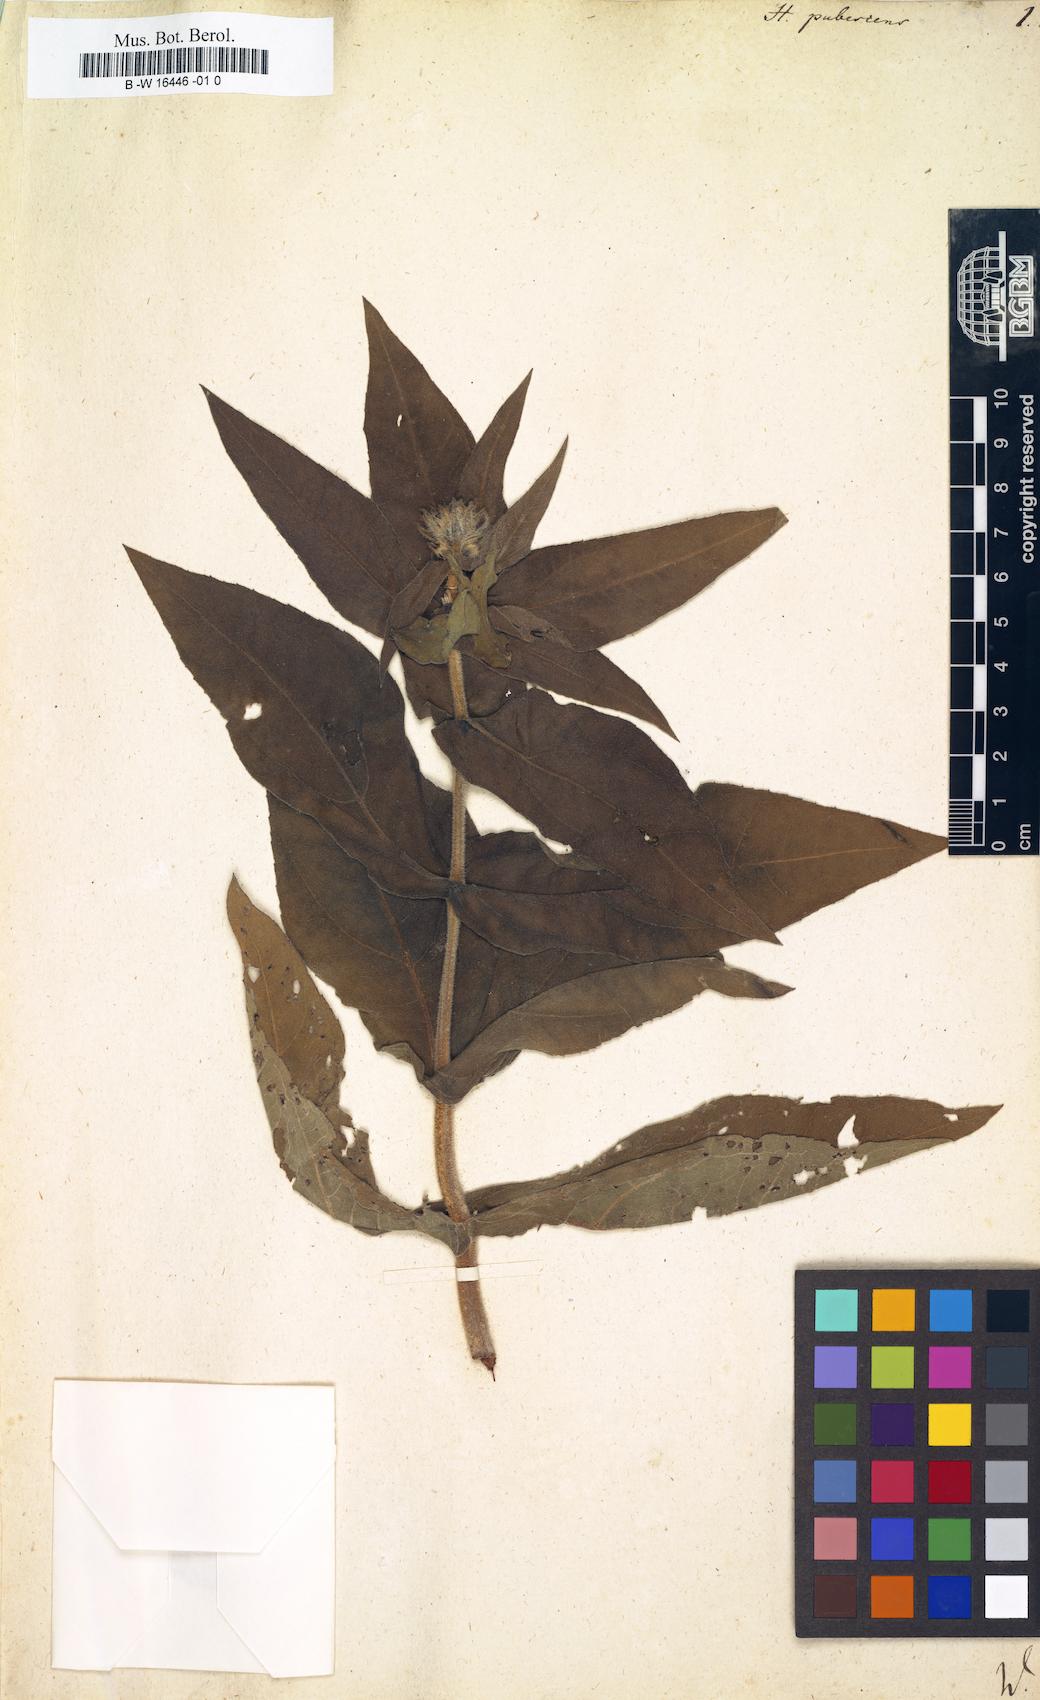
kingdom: Plantae
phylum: Tracheophyta
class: Magnoliopsida
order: Asterales
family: Asteraceae
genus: Helianthus
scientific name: Helianthus pubescens
